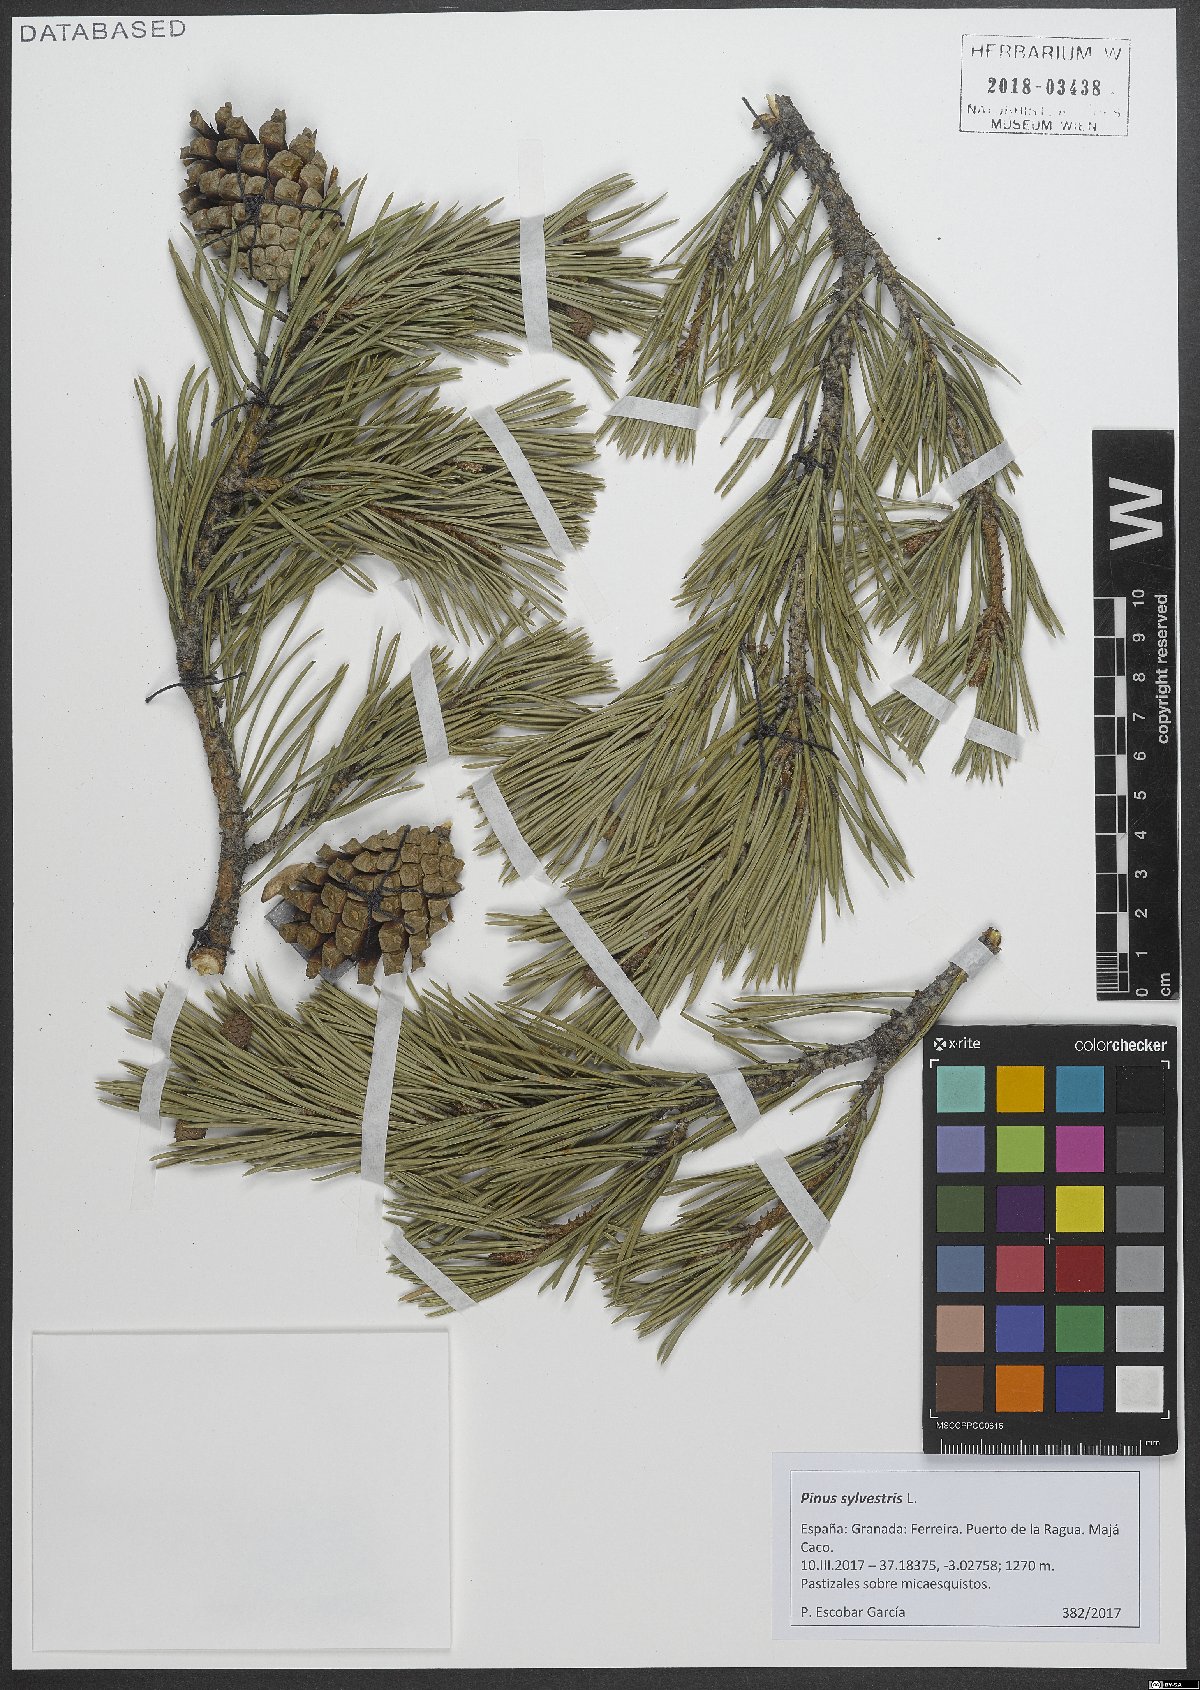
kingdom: Plantae
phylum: Tracheophyta
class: Pinopsida
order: Pinales
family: Pinaceae
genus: Pinus
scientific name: Pinus sylvestris
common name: Scots pine
